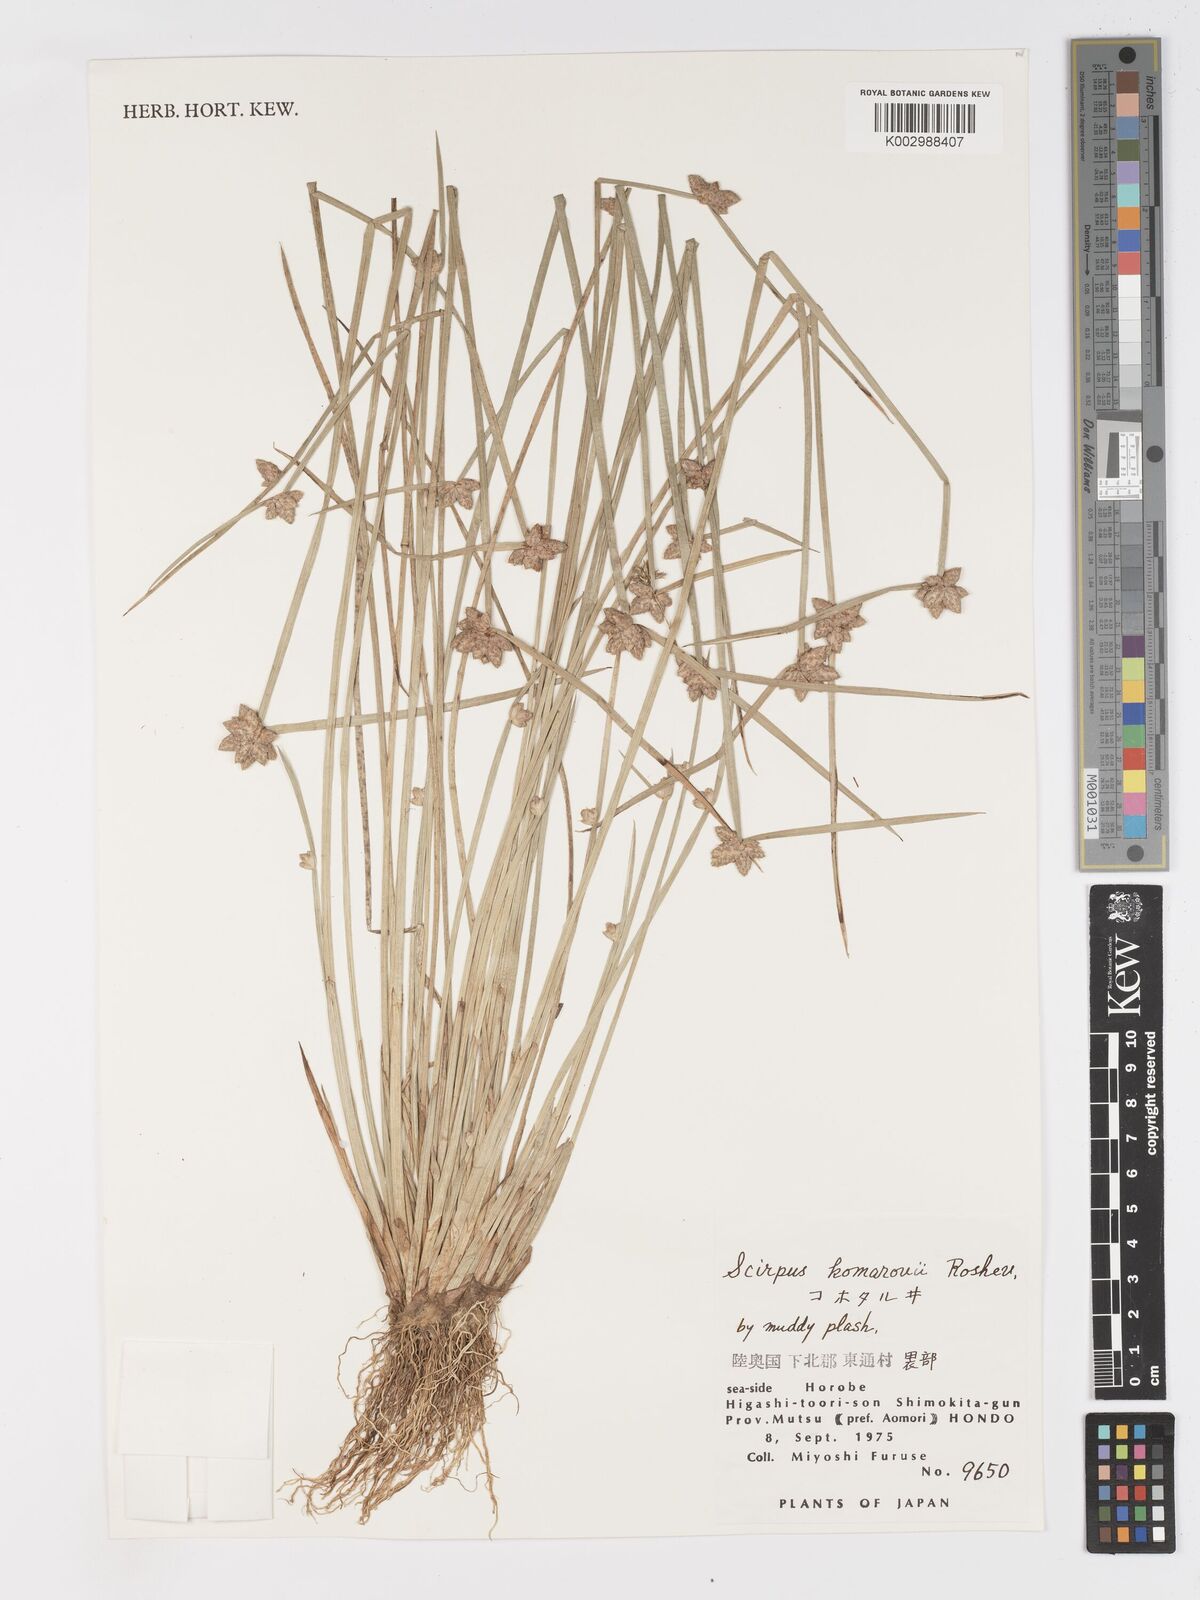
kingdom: Plantae
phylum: Tracheophyta
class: Liliopsida
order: Poales
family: Cyperaceae
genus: Schoenoplectiella
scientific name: Schoenoplectiella komarovii
